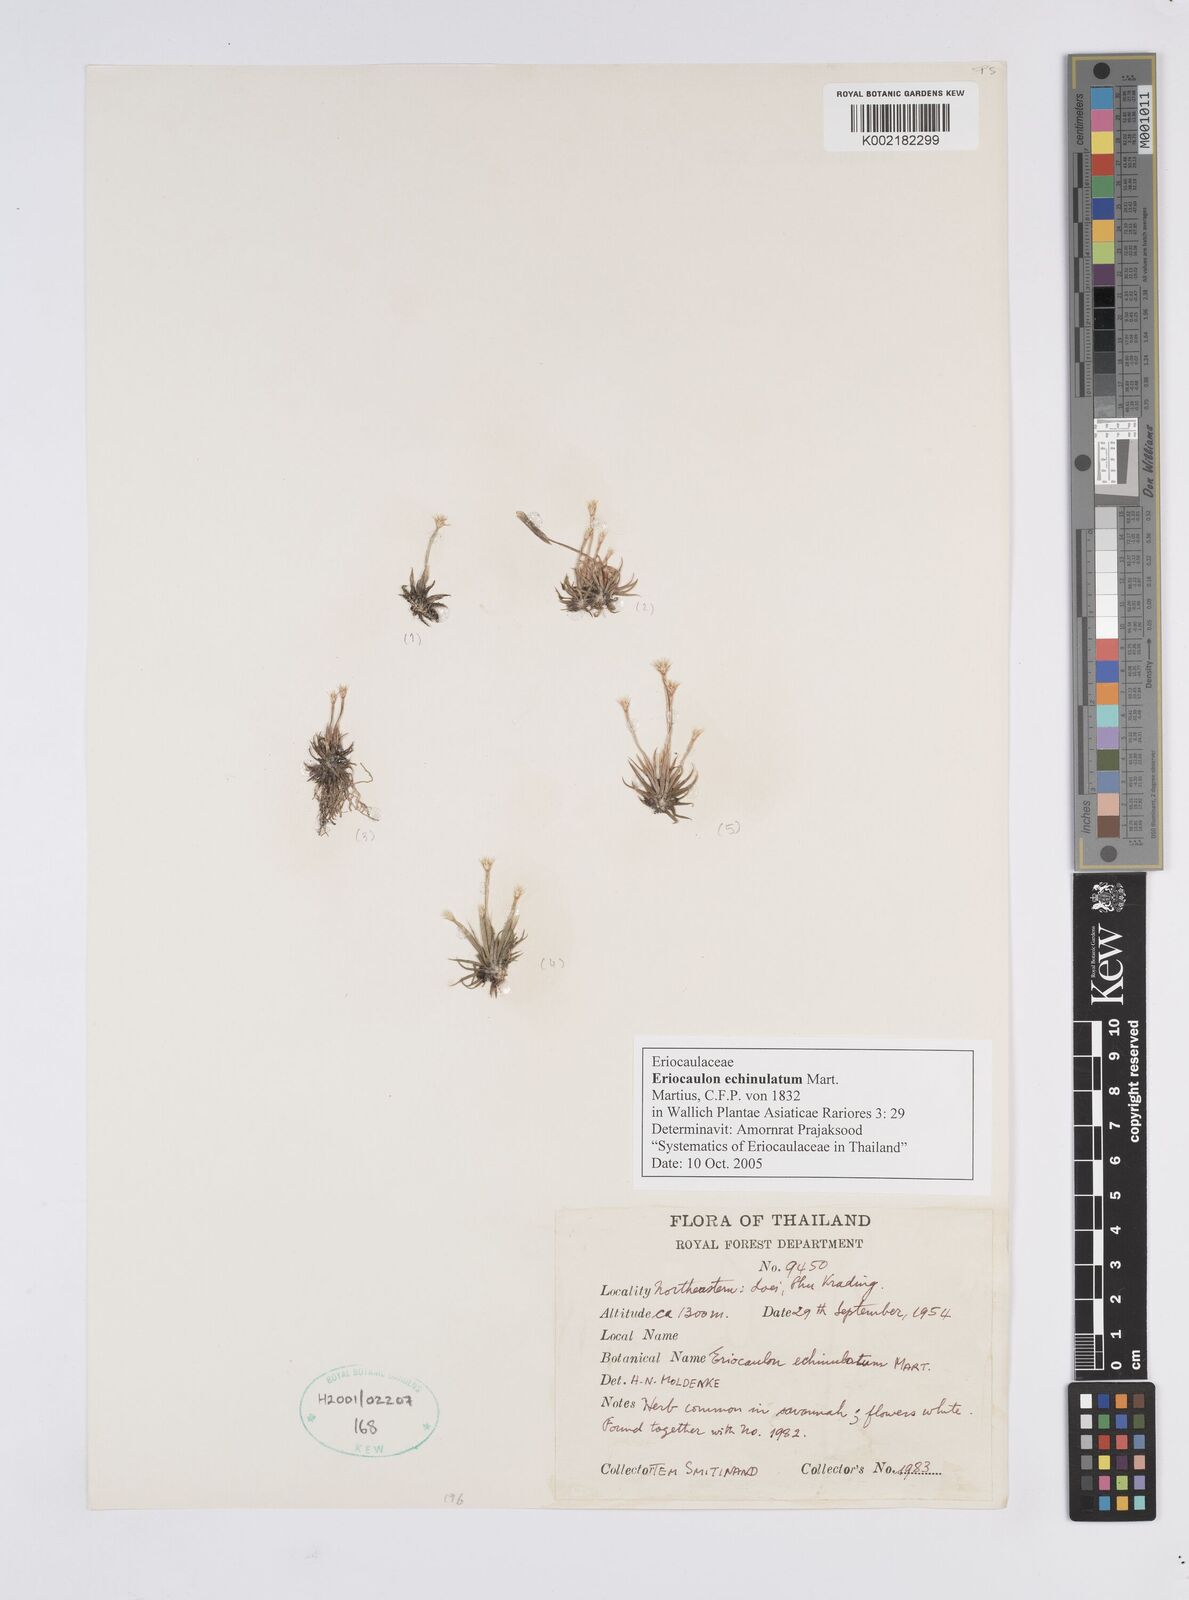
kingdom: Plantae
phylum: Tracheophyta
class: Liliopsida
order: Poales
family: Eriocaulaceae
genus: Eriocaulon
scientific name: Eriocaulon echinulatum
